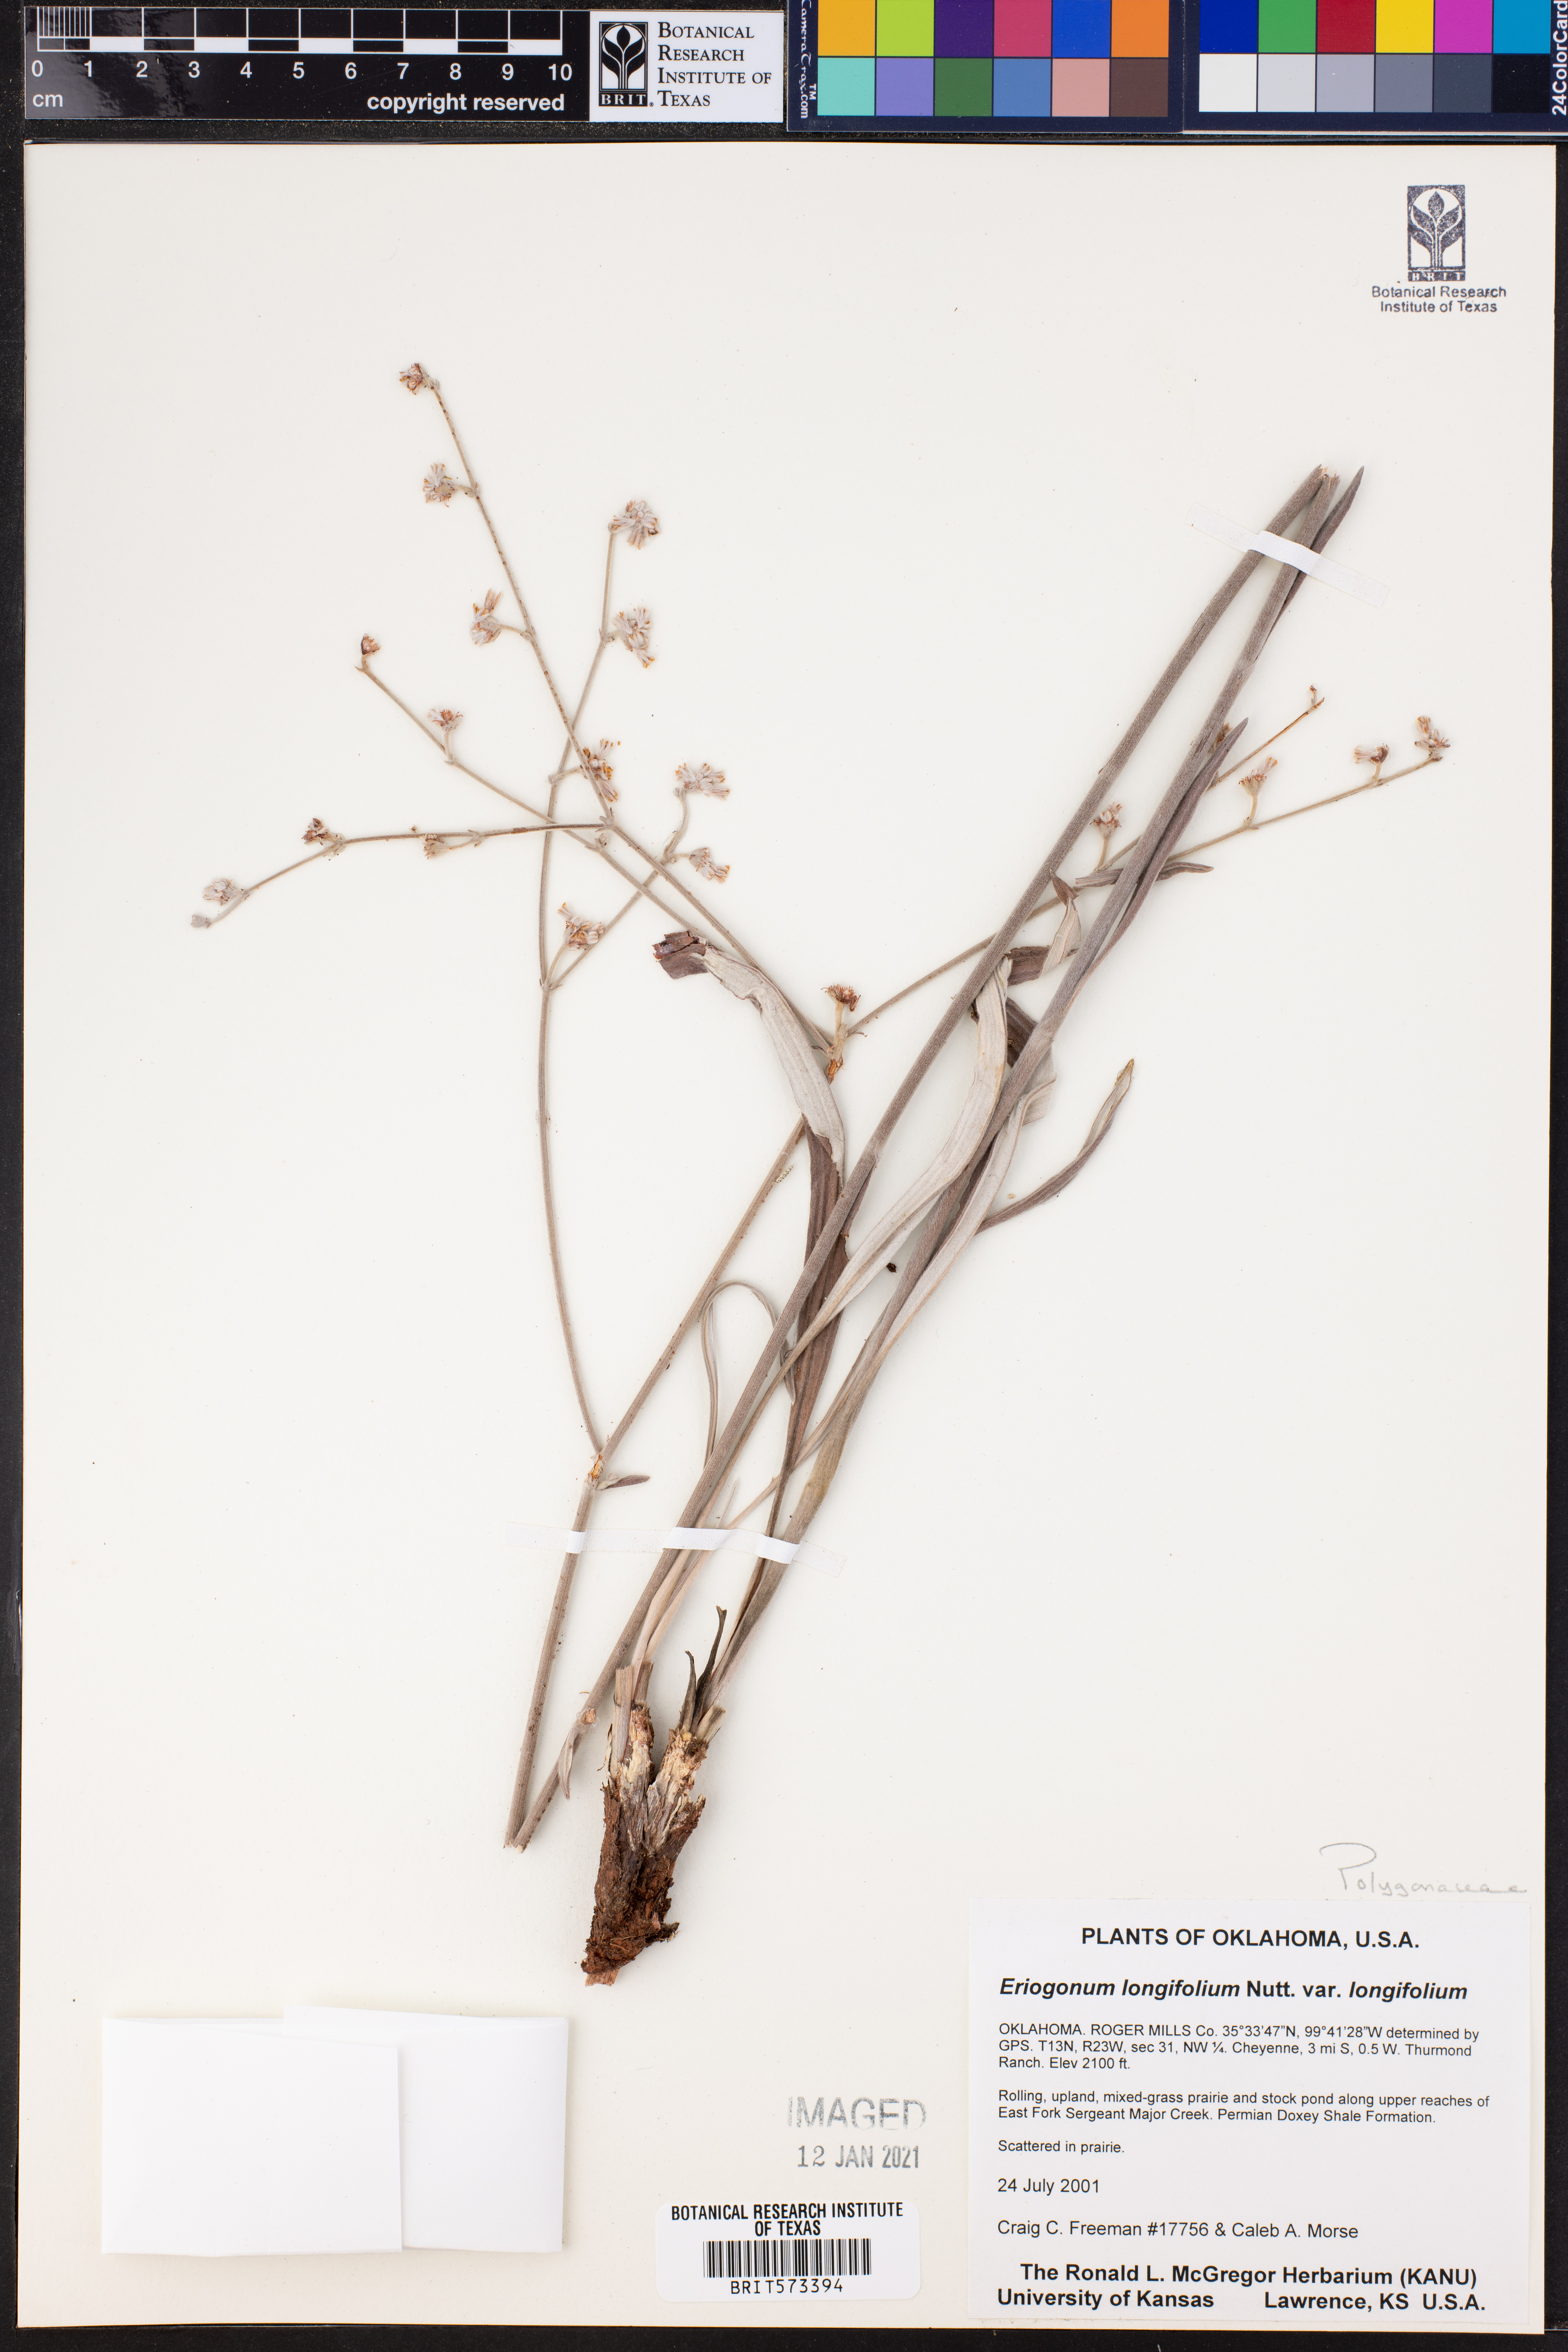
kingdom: Plantae
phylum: Tracheophyta
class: Magnoliopsida
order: Caryophyllales
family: Polygonaceae
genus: Eriogonum
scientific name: Eriogonum longifolium
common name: Longleaf wild buckwheat
